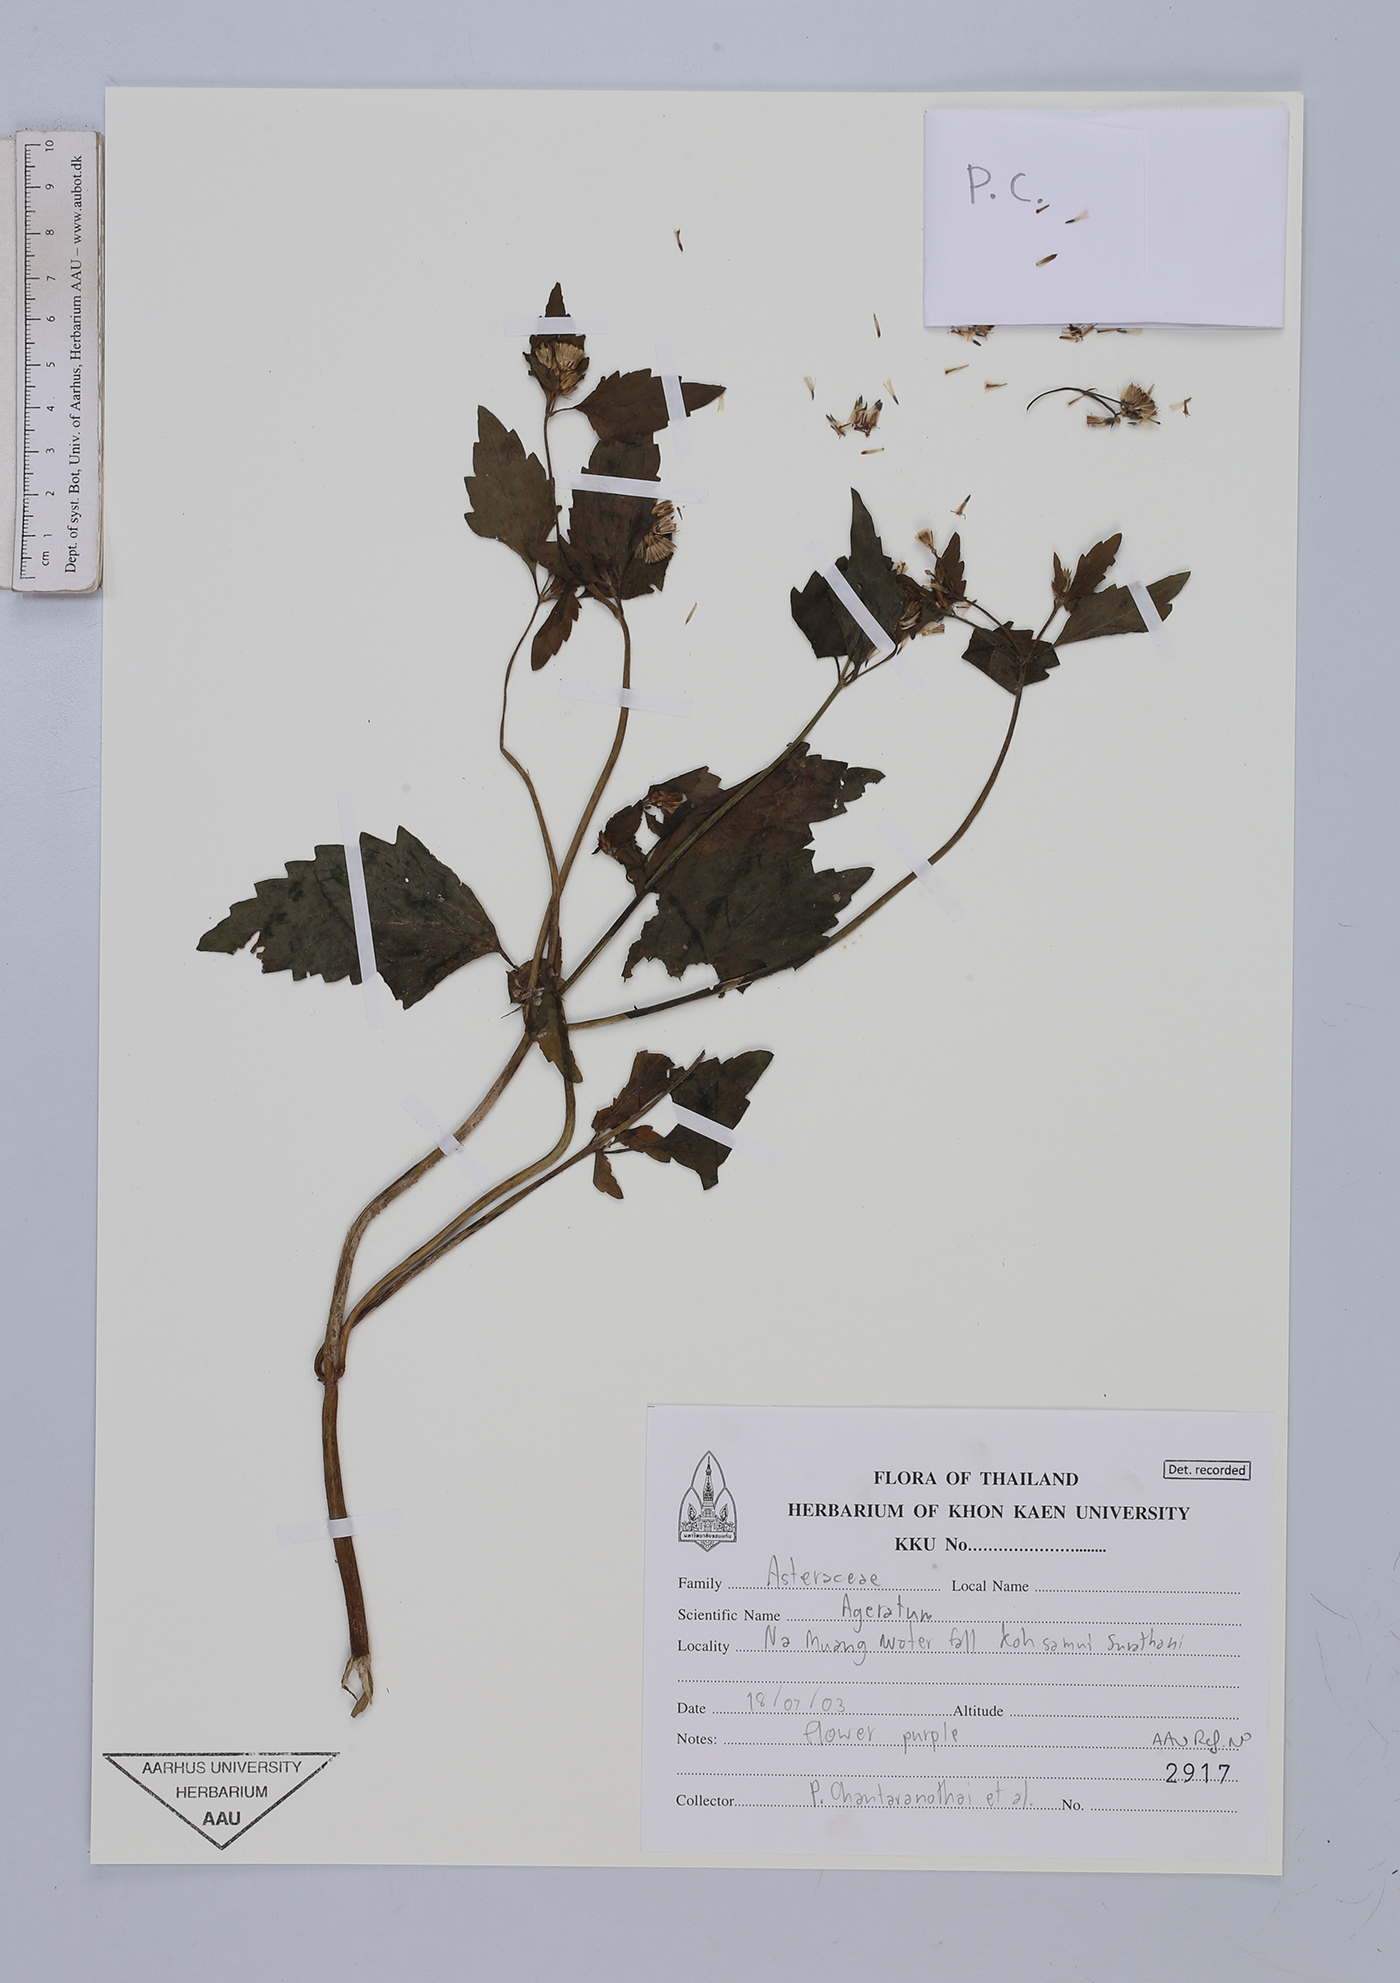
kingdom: Plantae
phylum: Tracheophyta
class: Magnoliopsida
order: Asterales
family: Asteraceae
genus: Ageratum
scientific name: Ageratum conyzoides
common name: Tropical whiteweed
